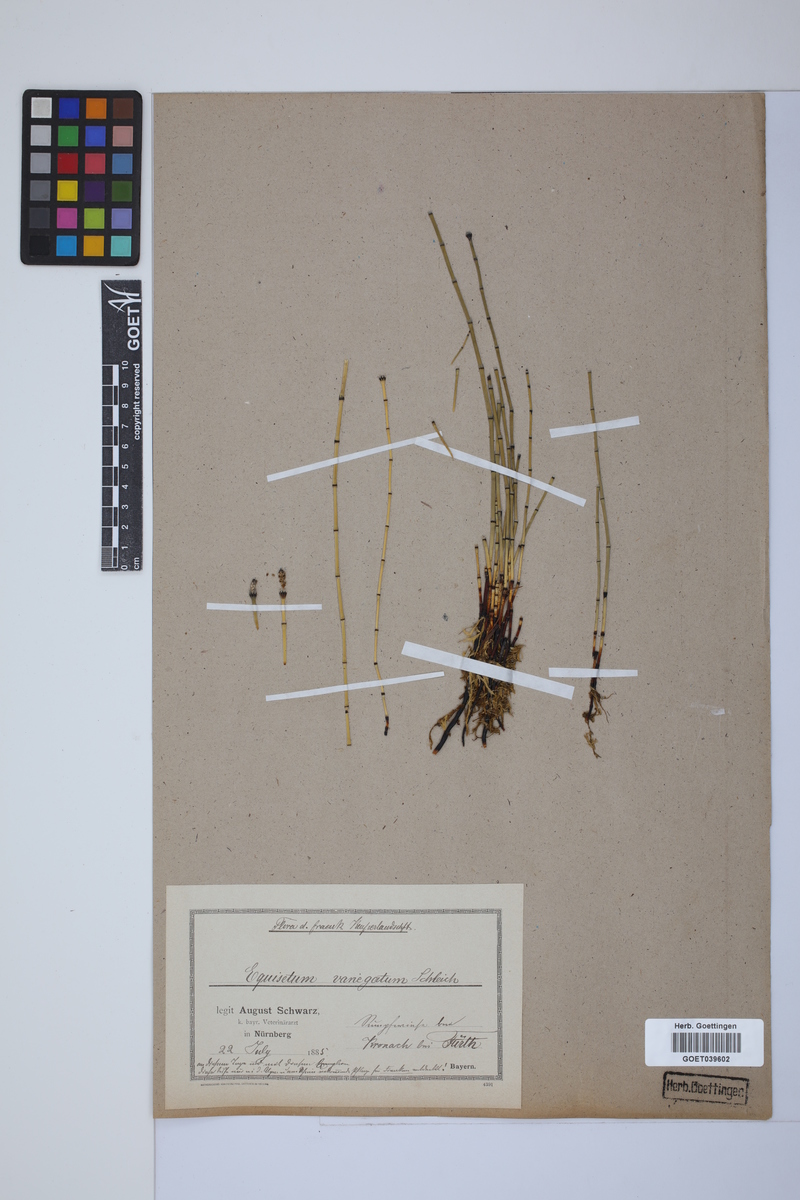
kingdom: Plantae
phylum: Tracheophyta
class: Polypodiopsida
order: Equisetales
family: Equisetaceae
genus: Equisetum
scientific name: Equisetum variegatum
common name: Variegated horsetail
